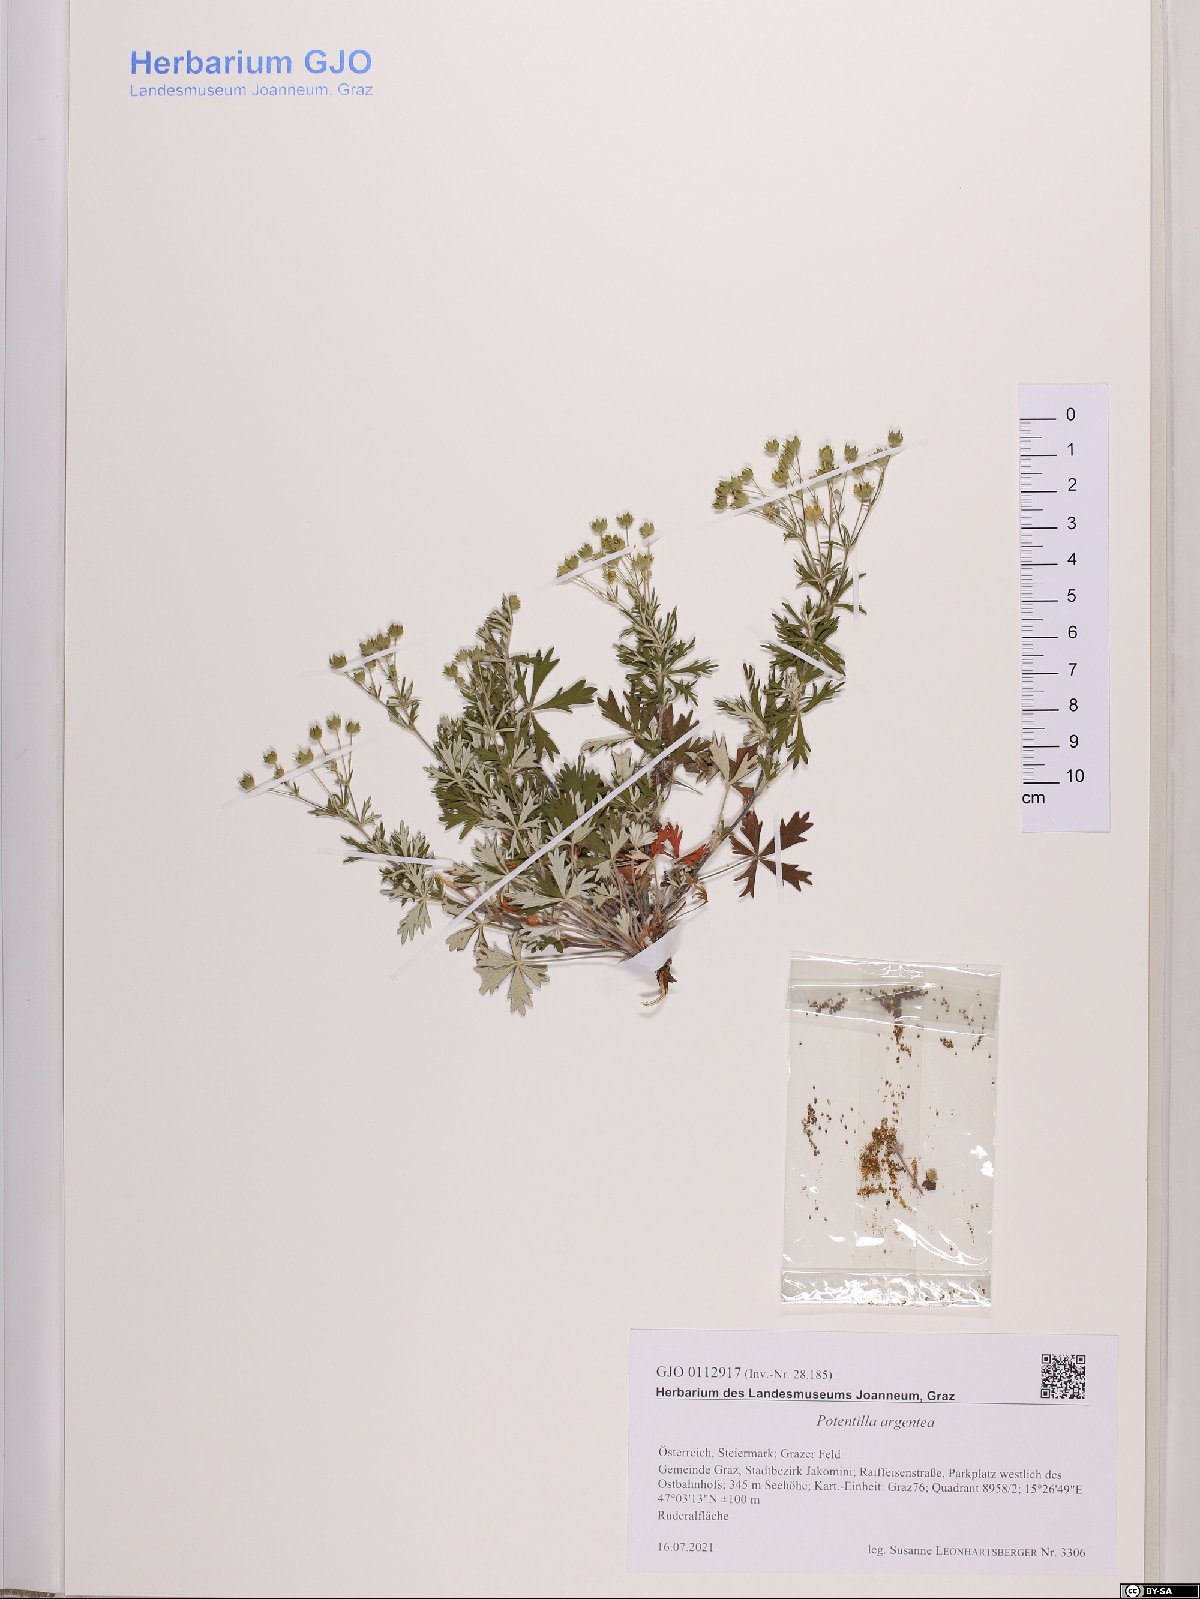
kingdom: Plantae
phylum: Tracheophyta
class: Magnoliopsida
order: Rosales
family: Rosaceae
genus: Potentilla
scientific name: Potentilla argentea
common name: Hoary cinquefoil
